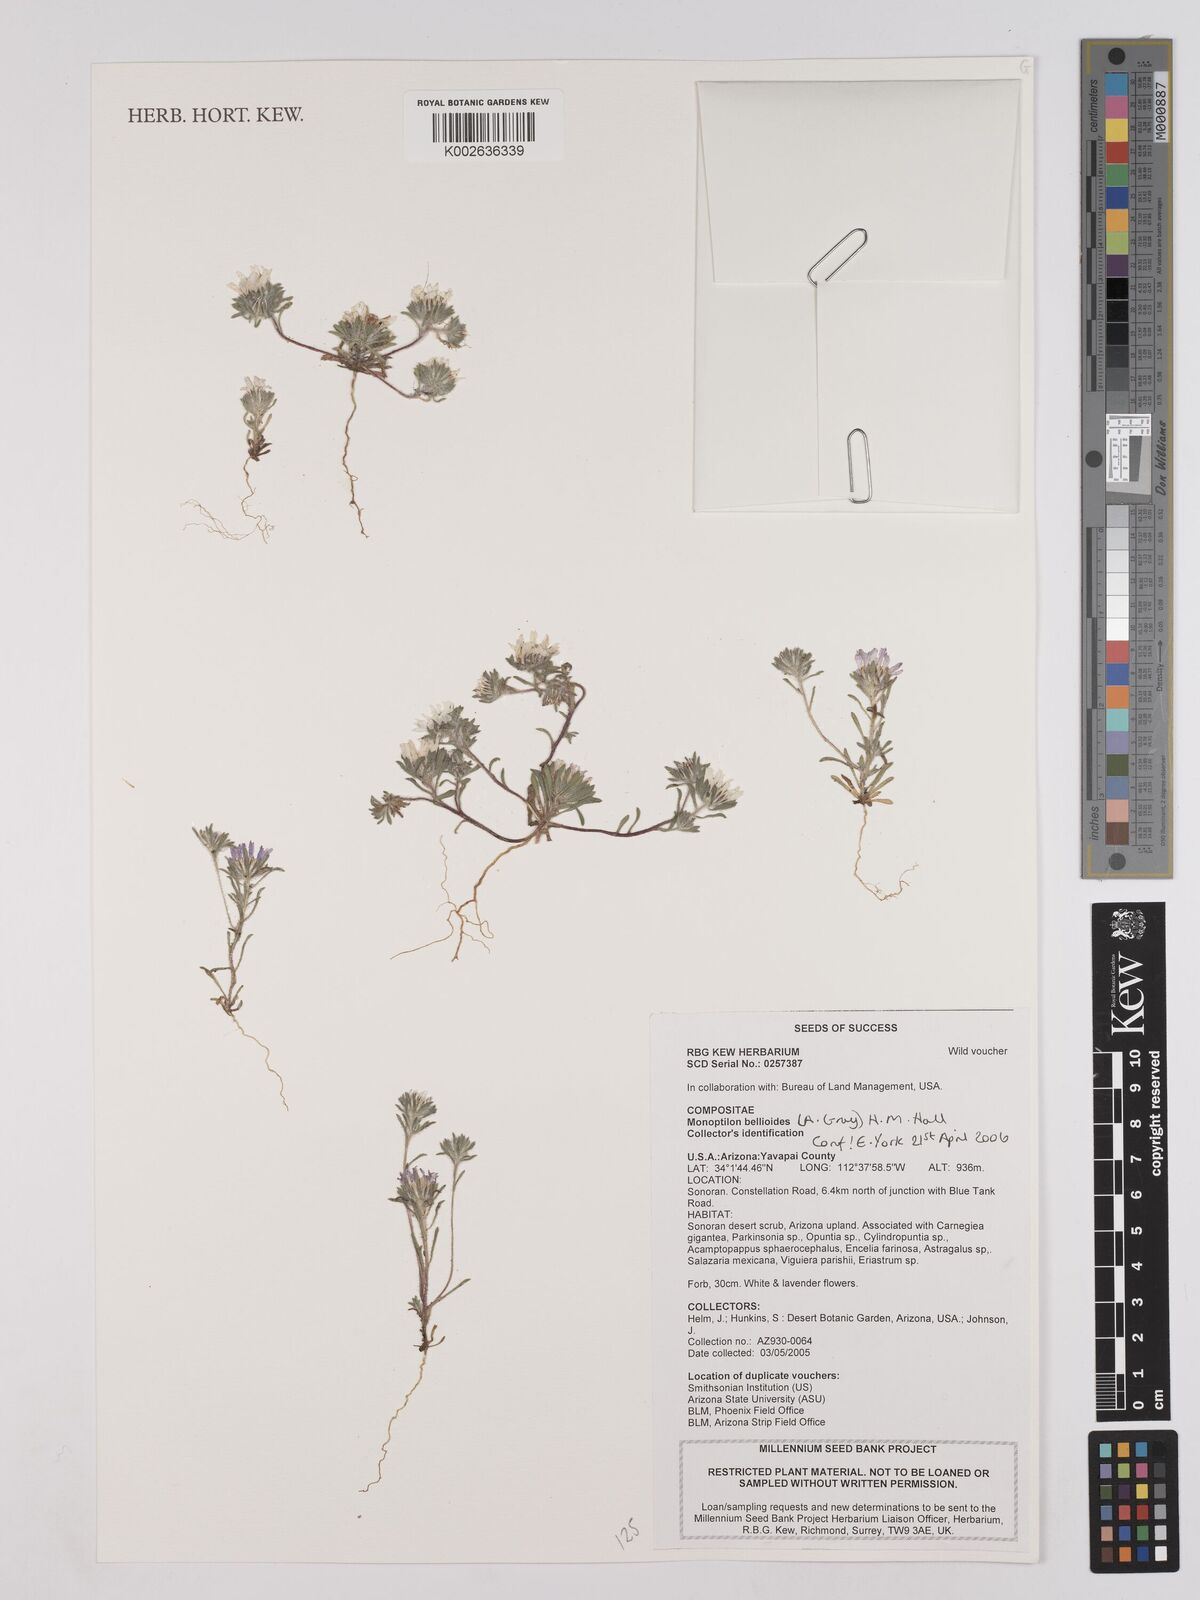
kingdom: Plantae
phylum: Tracheophyta
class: Magnoliopsida
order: Asterales
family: Asteraceae
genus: Monoptilon
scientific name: Monoptilon bellidiforme
